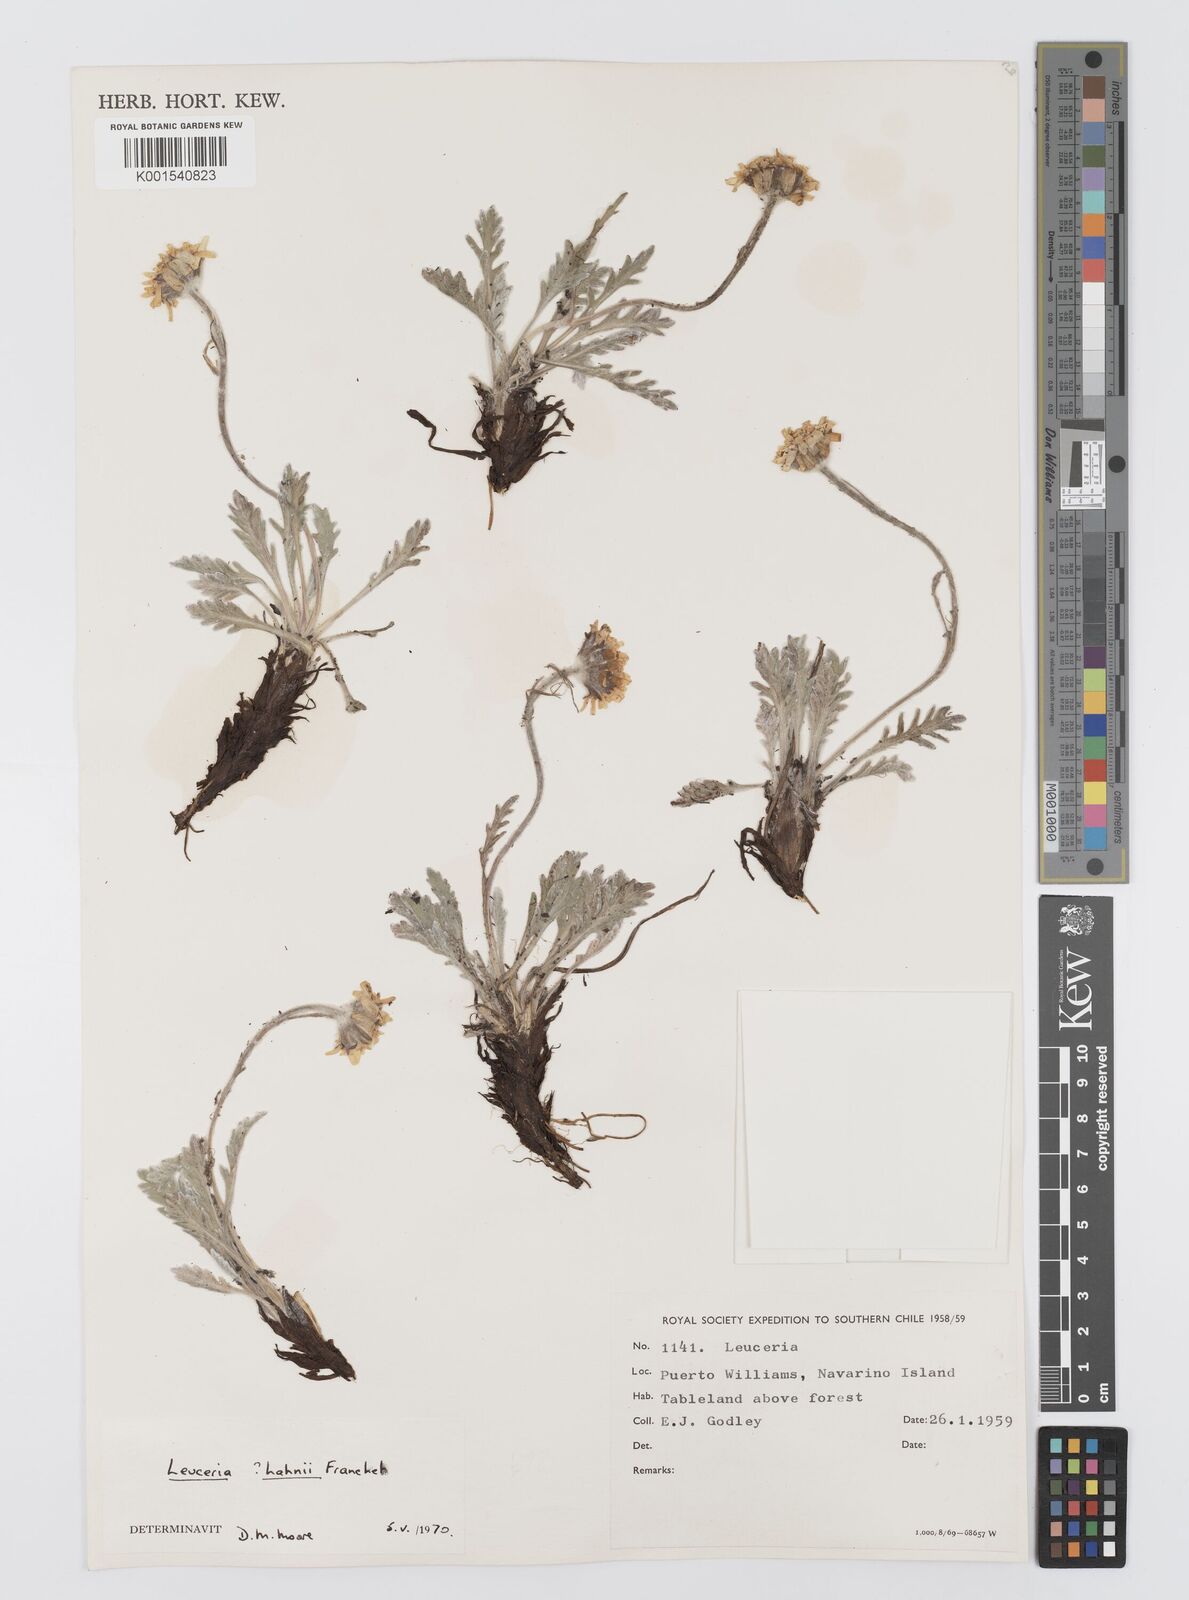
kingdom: Plantae
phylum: Tracheophyta
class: Magnoliopsida
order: Asterales
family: Asteraceae
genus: Leucheria
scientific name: Leucheria hahnii
